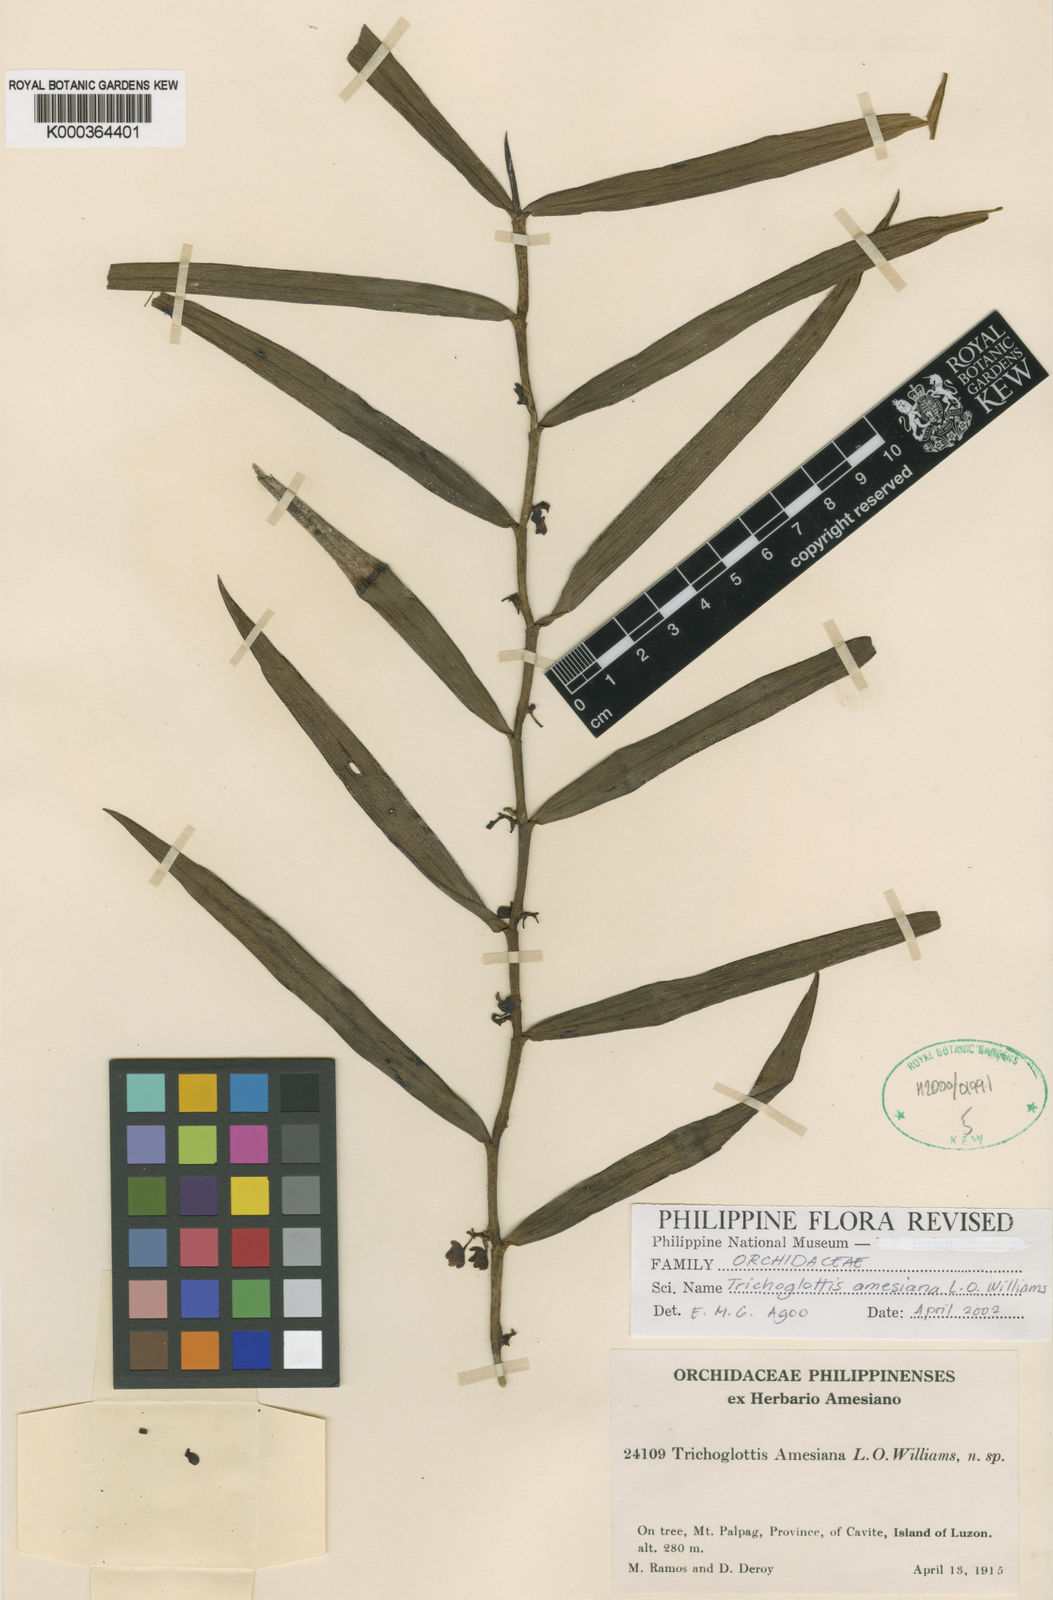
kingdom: Plantae
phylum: Tracheophyta
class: Liliopsida
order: Asparagales
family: Orchidaceae
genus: Trichoglottis
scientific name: Trichoglottis amesiana
